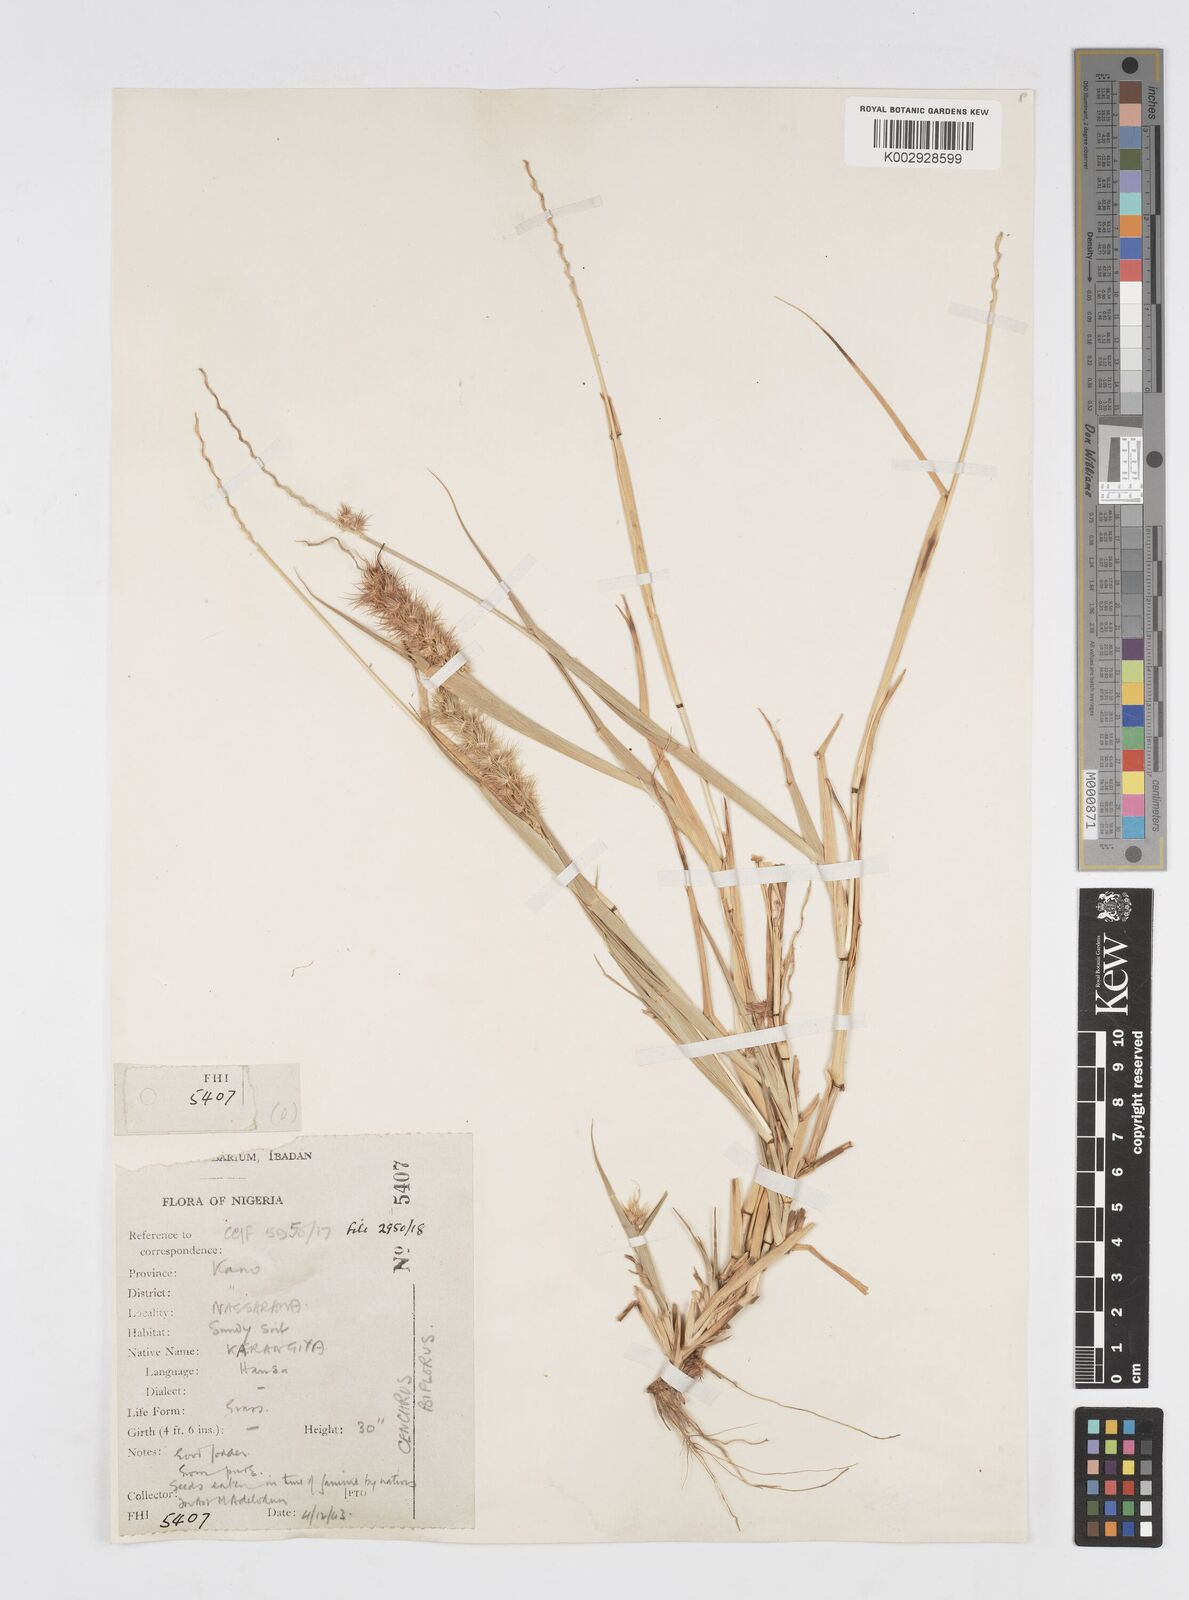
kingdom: Plantae
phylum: Tracheophyta
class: Liliopsida
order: Poales
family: Poaceae
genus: Cenchrus
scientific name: Cenchrus biflorus
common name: Indian sandbur
